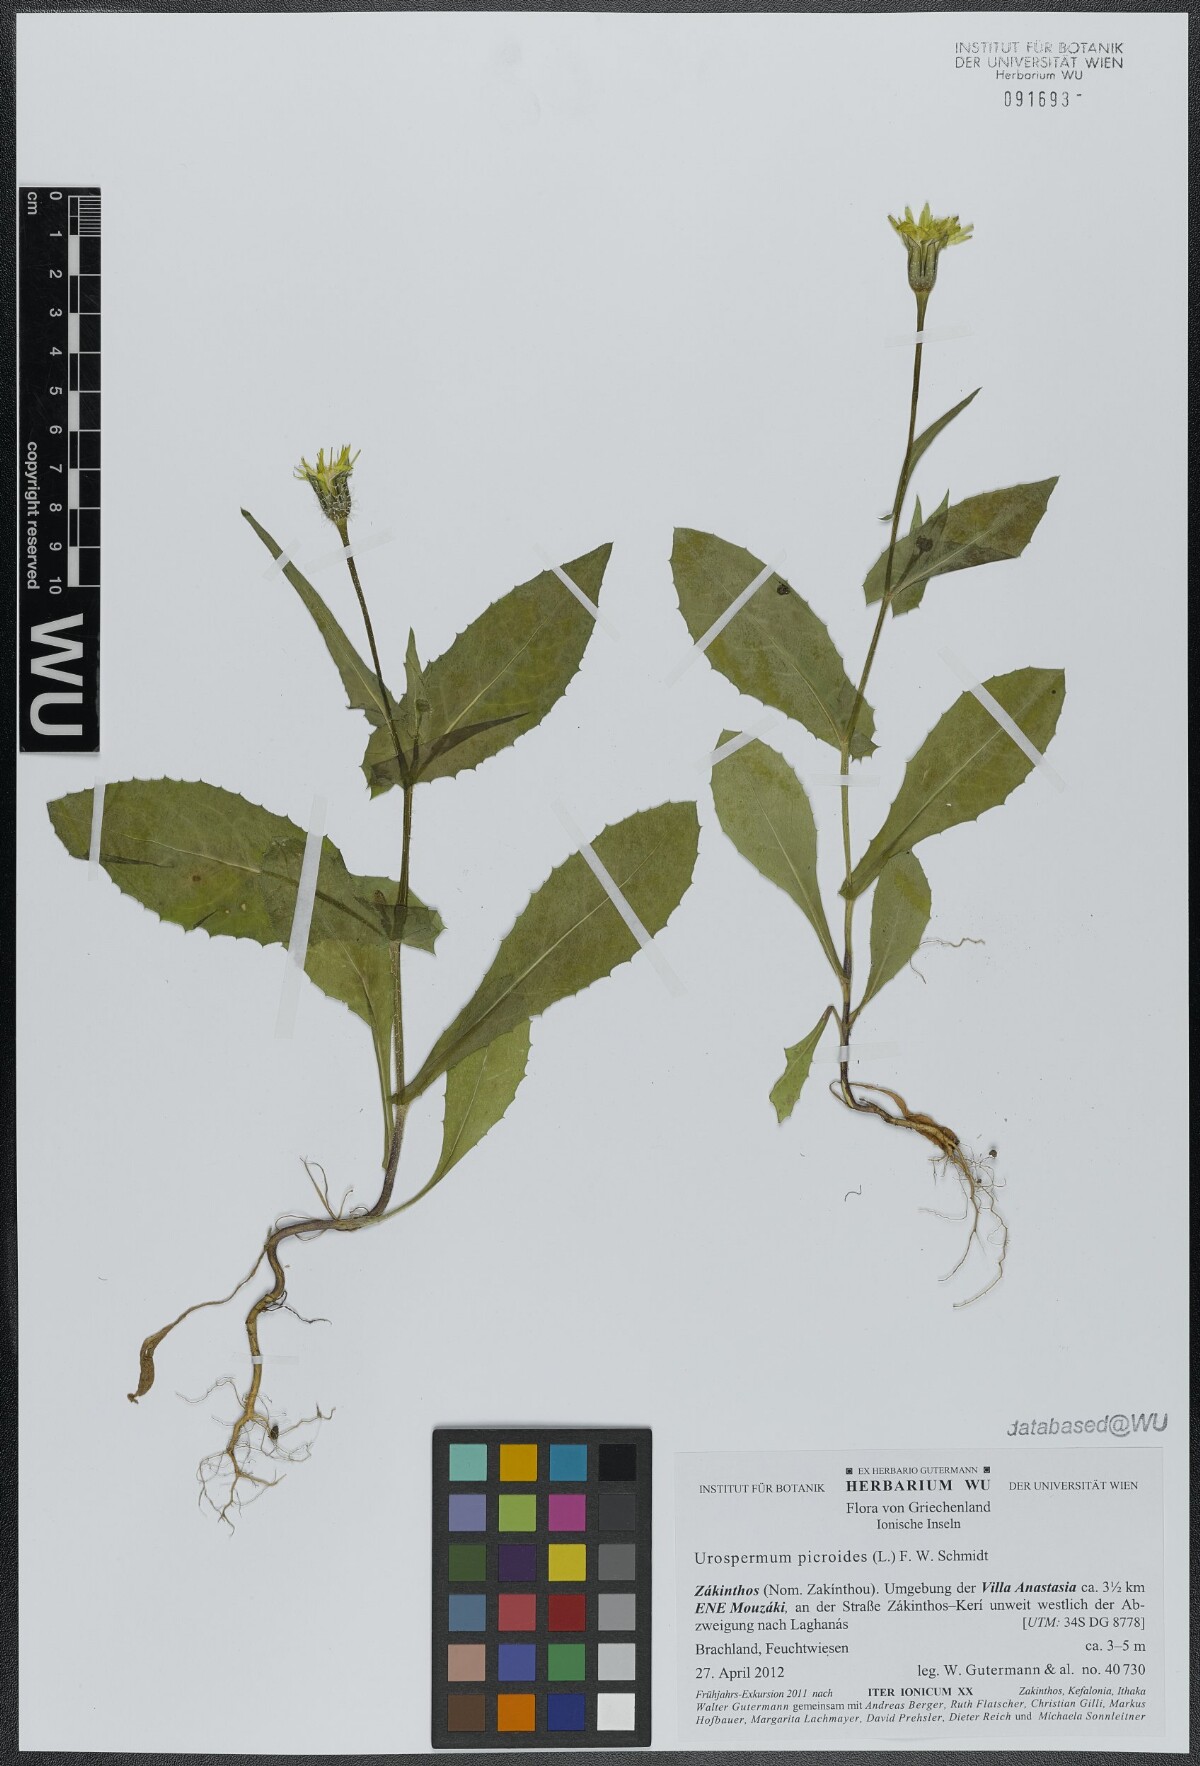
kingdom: Plantae
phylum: Tracheophyta
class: Magnoliopsida
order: Asterales
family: Asteraceae
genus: Urospermum
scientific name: Urospermum picroides
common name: False hawkbit
